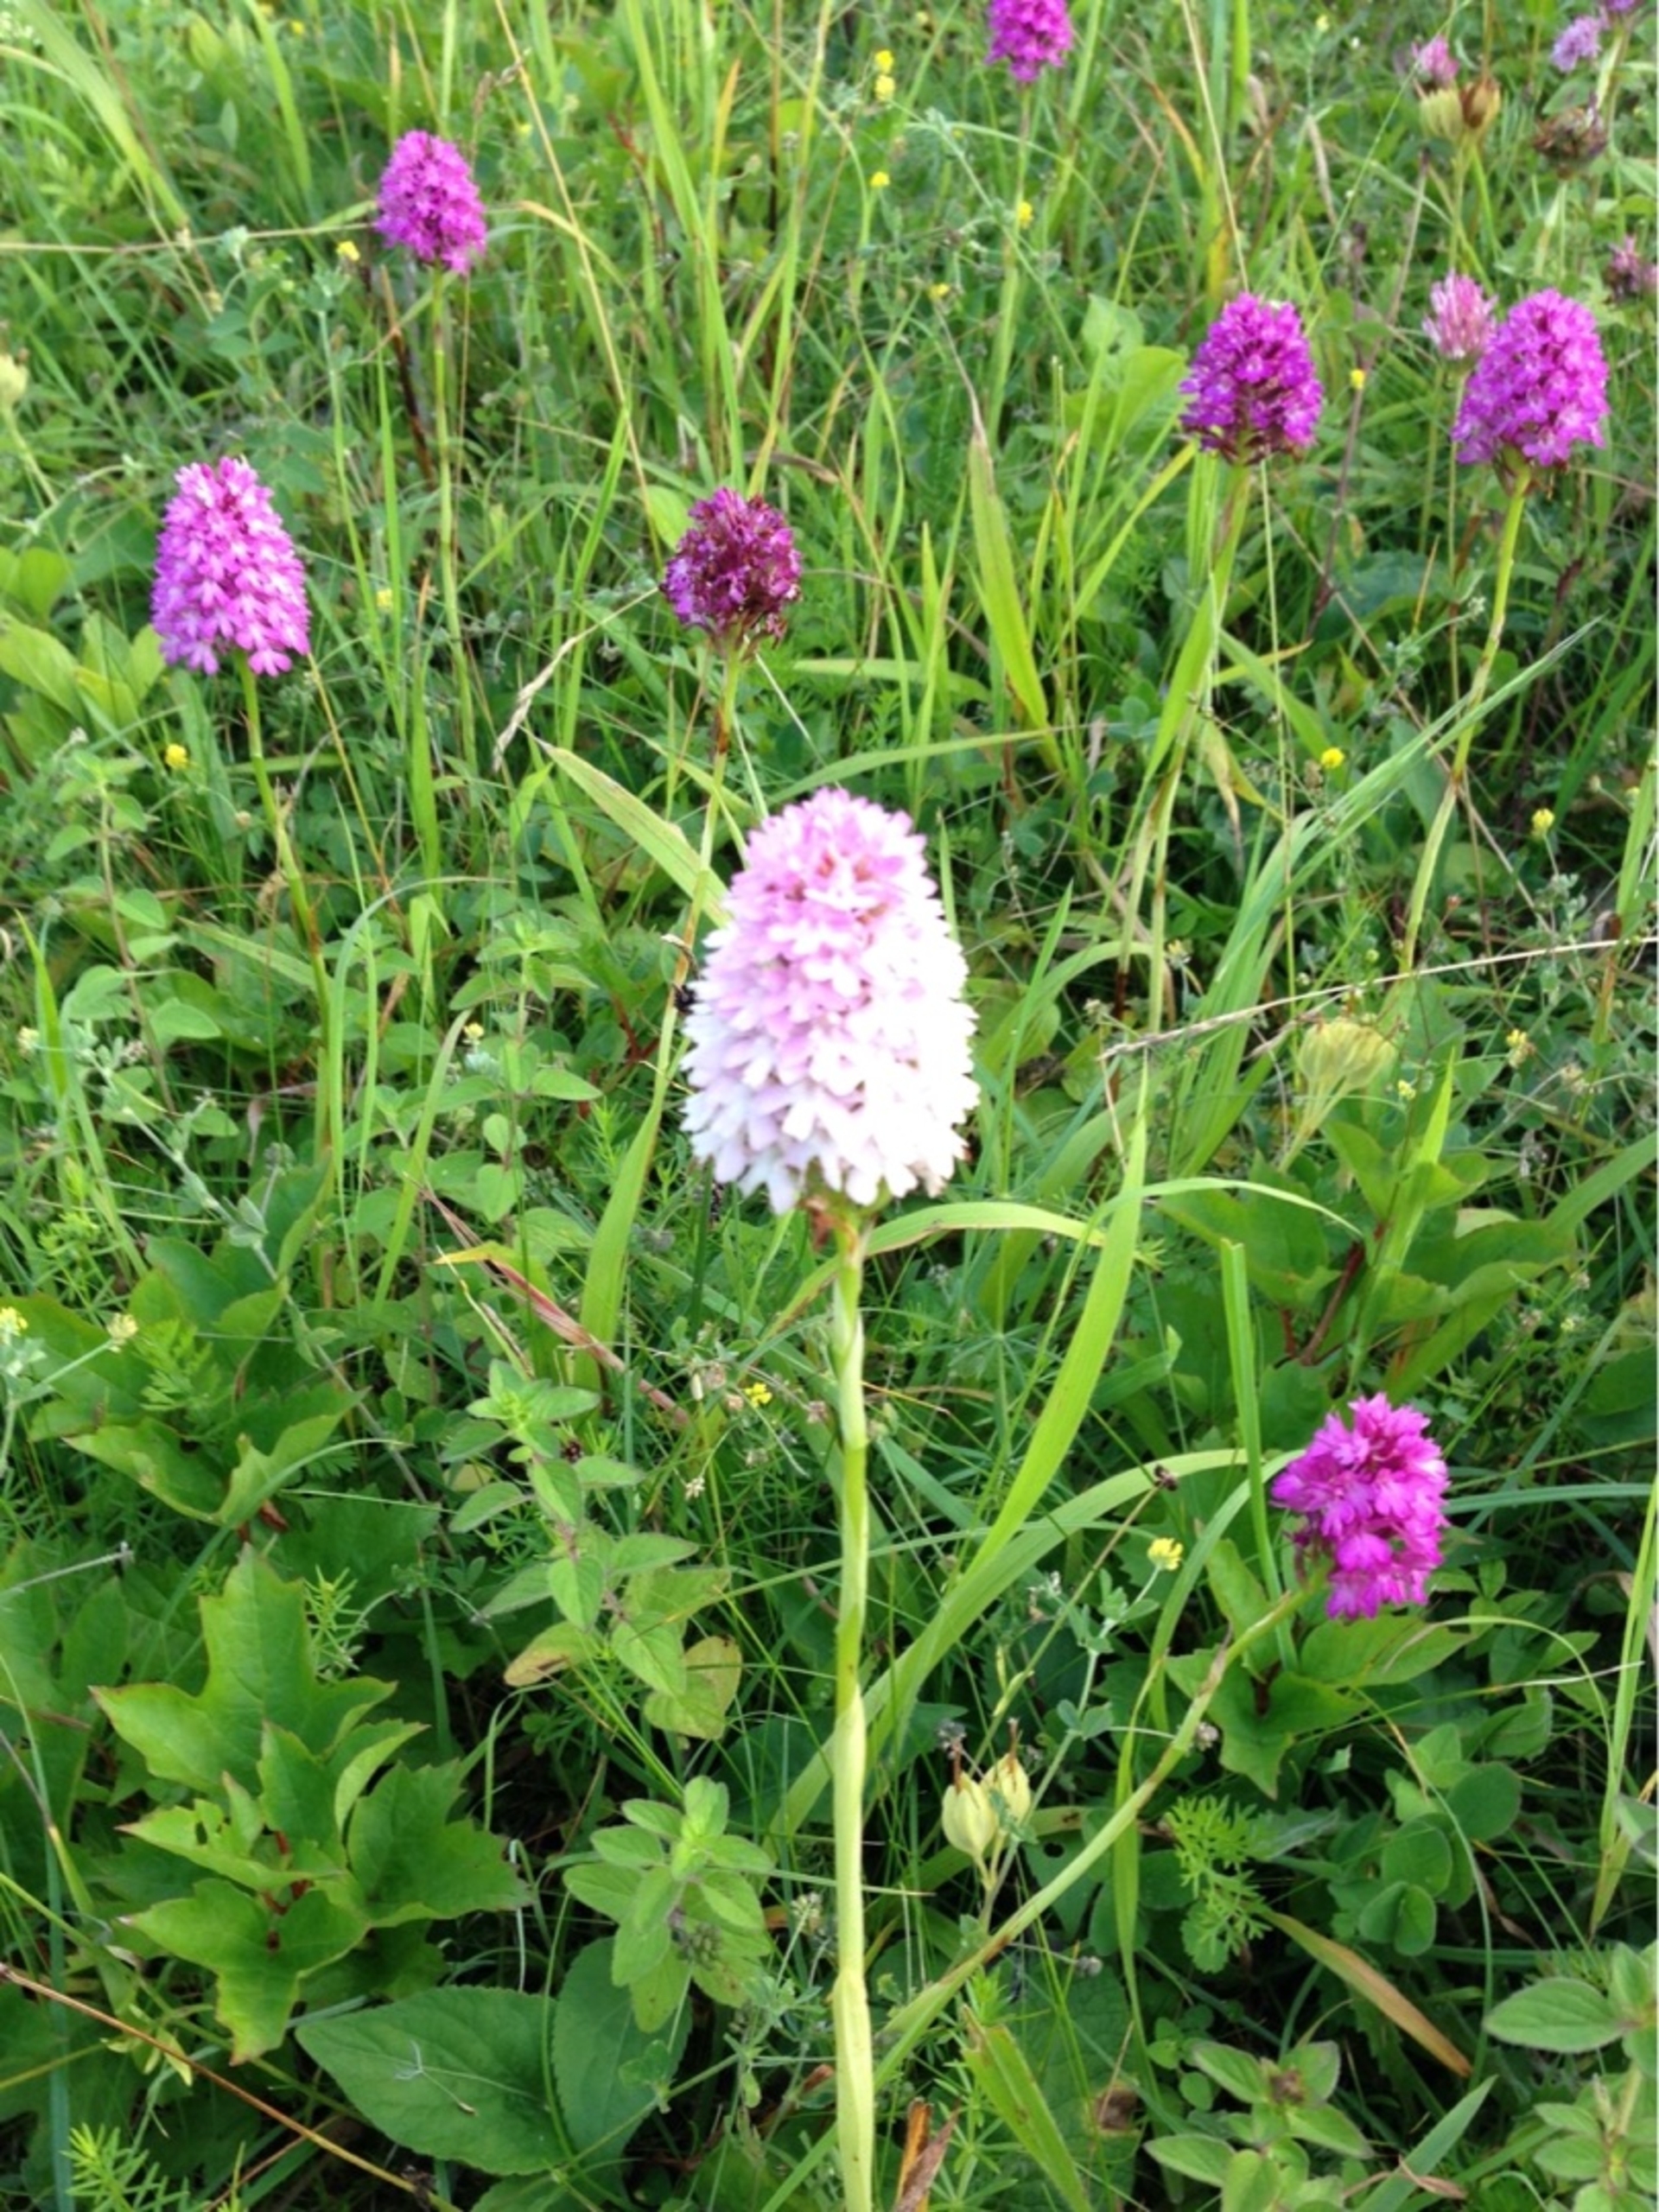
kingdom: Plantae
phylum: Tracheophyta
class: Liliopsida
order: Asparagales
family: Orchidaceae
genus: Anacamptis
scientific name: Anacamptis pyramidalis
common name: Horndrager
